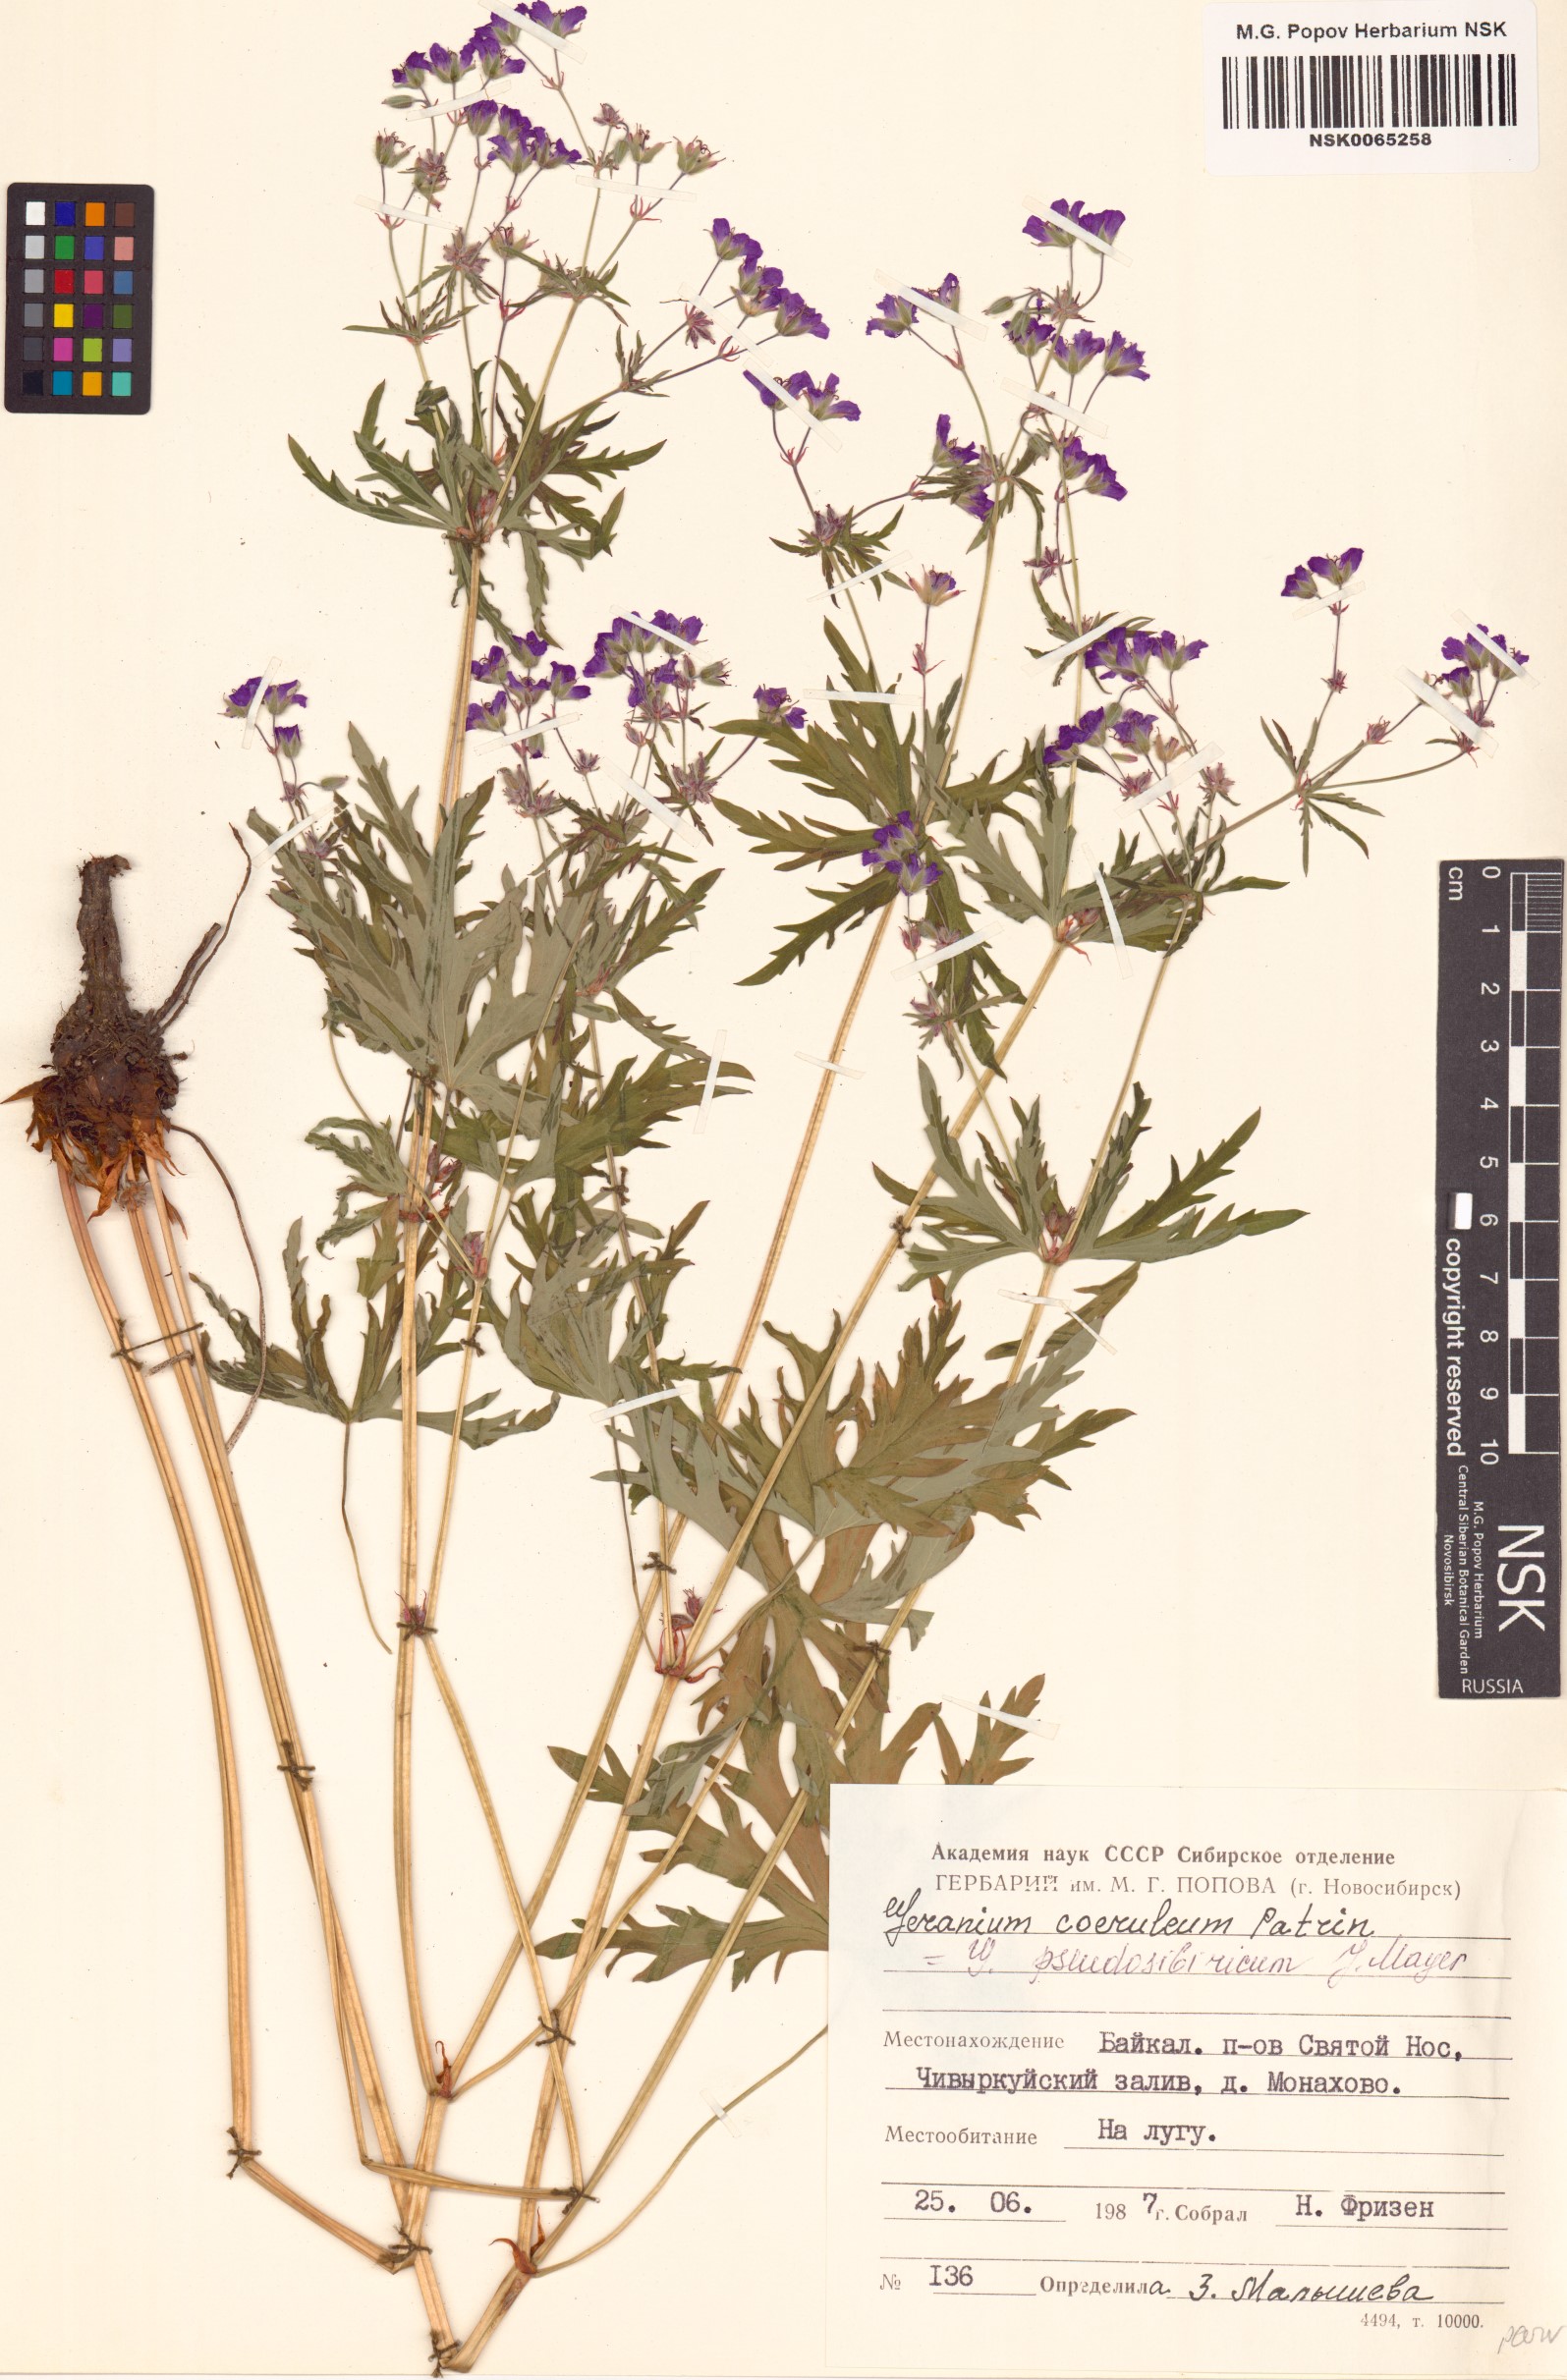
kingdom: Plantae
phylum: Tracheophyta
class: Magnoliopsida
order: Geraniales
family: Geraniaceae
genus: Geranium
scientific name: Geranium pseudosibiricum
